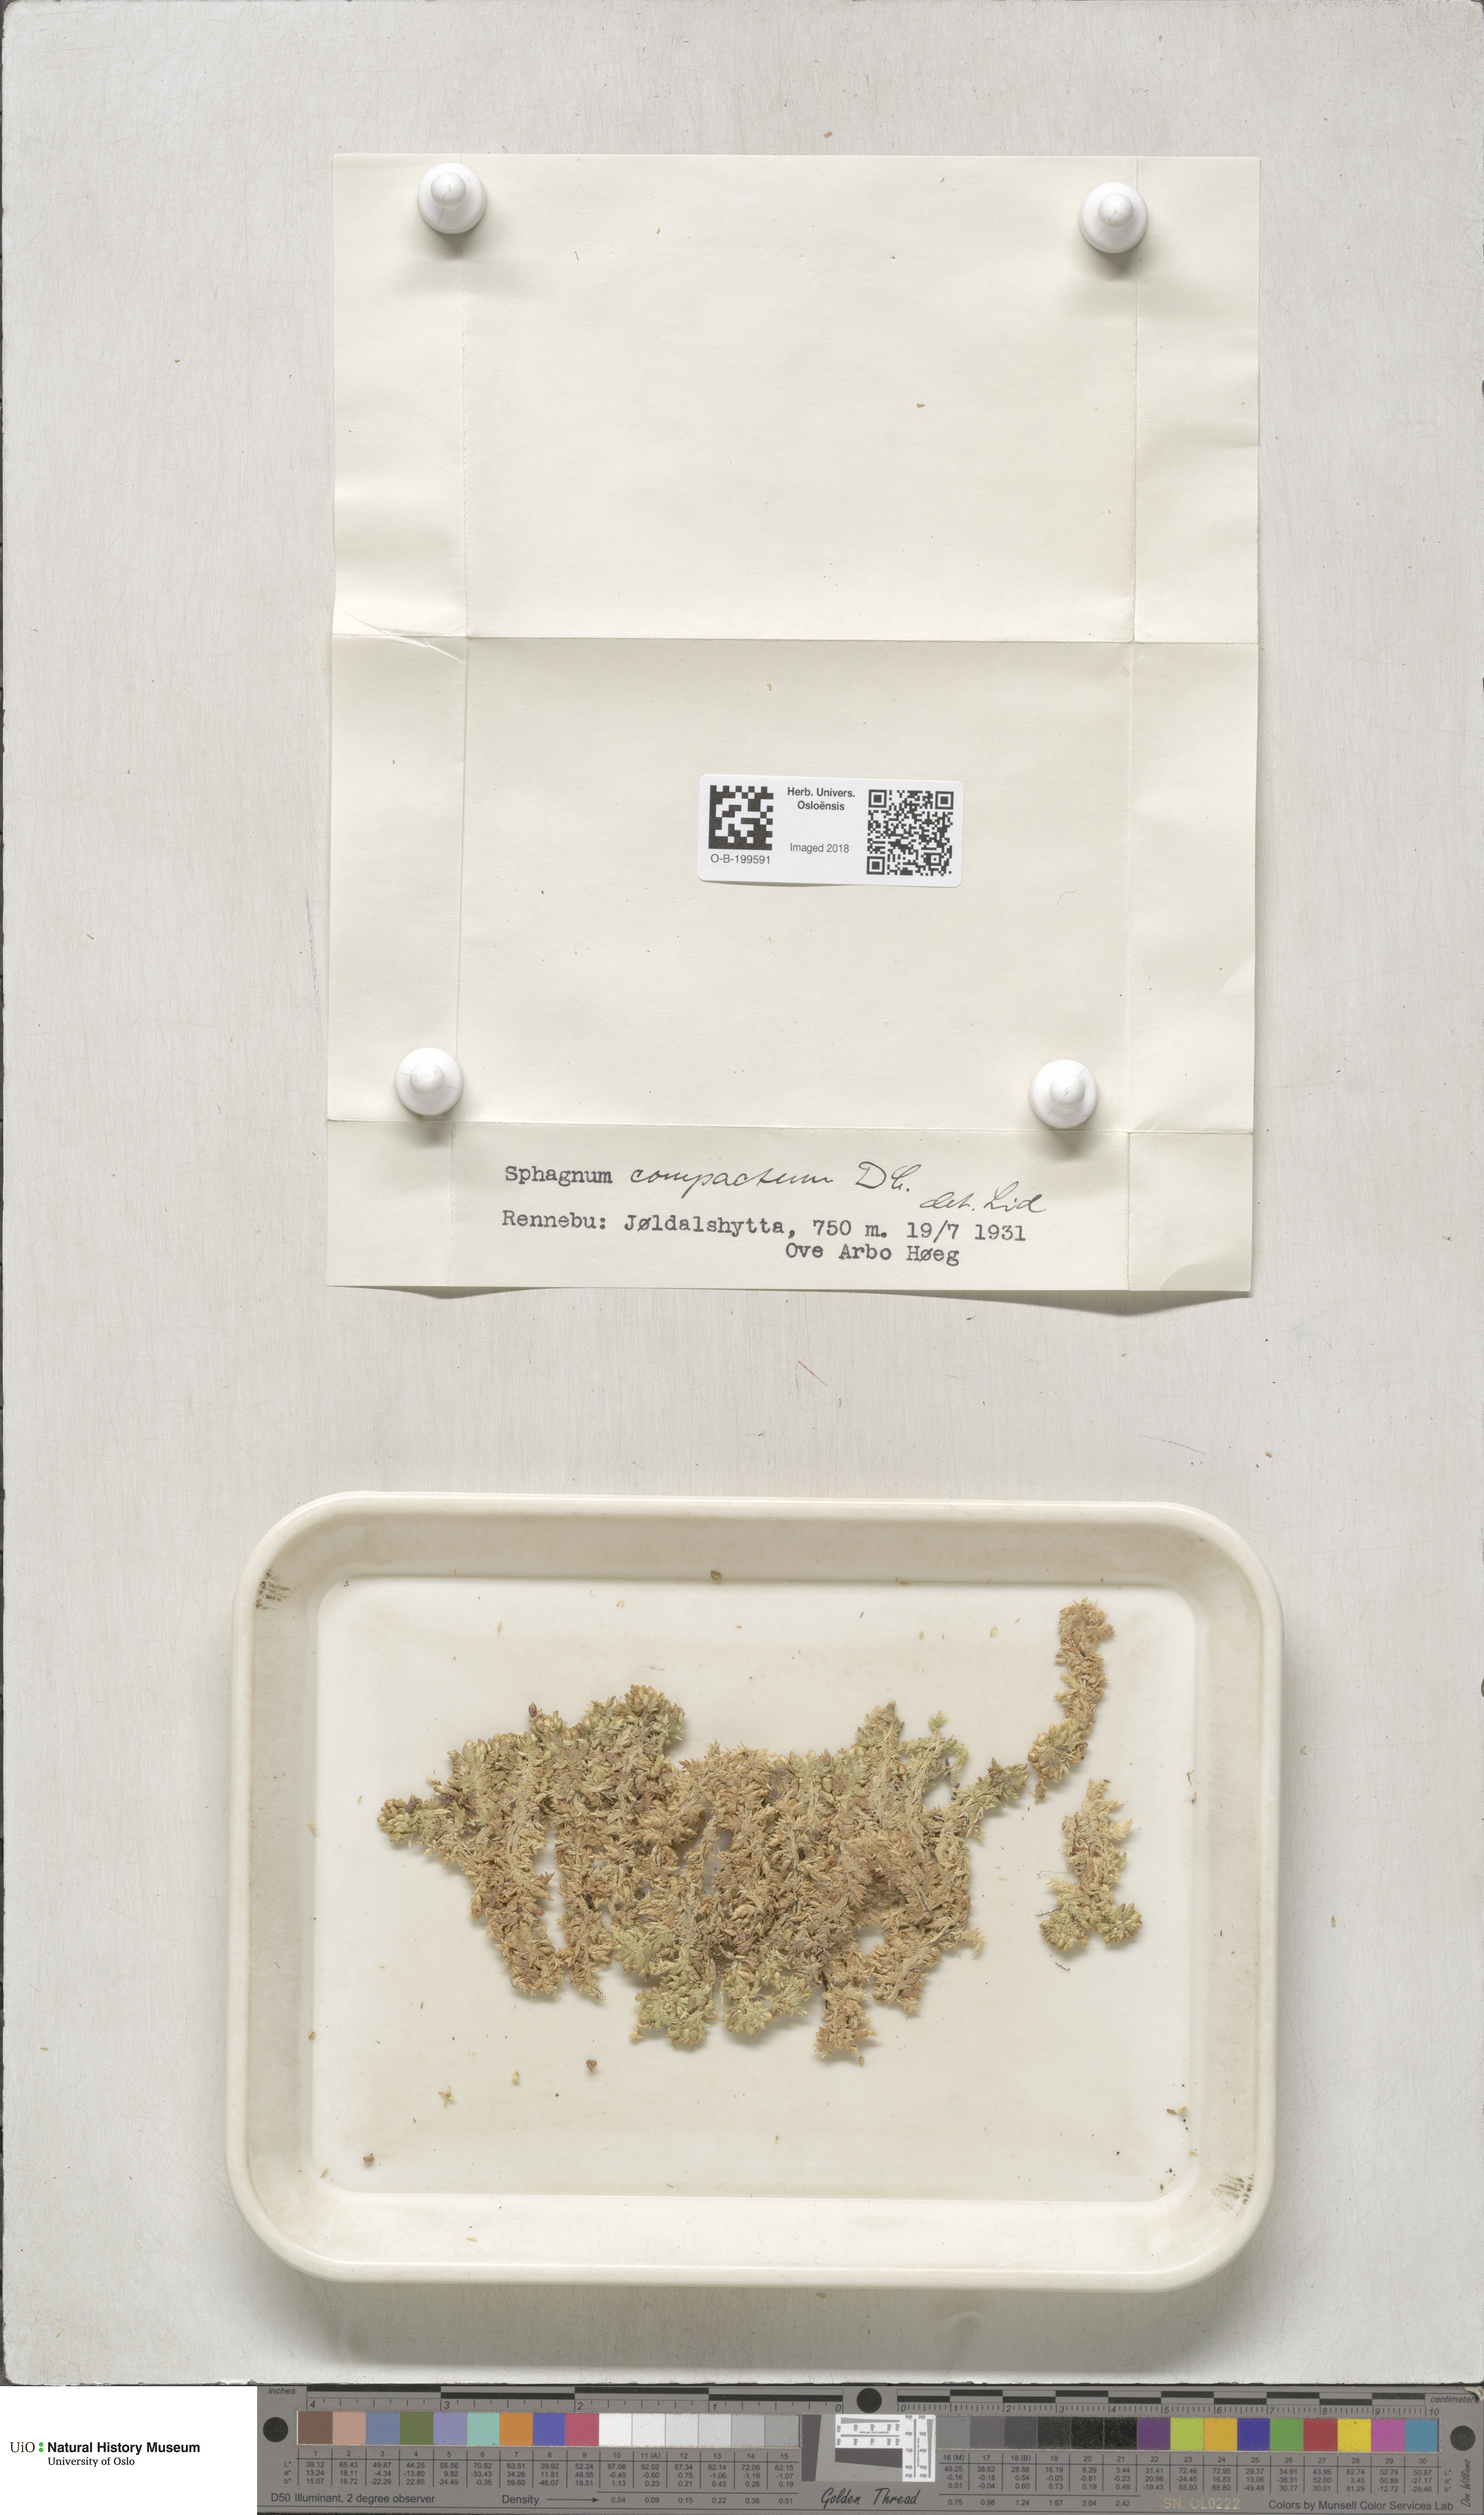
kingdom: Plantae
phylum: Bryophyta
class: Sphagnopsida
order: Sphagnales
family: Sphagnaceae
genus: Sphagnum
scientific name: Sphagnum compactum
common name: Compact peat moss
